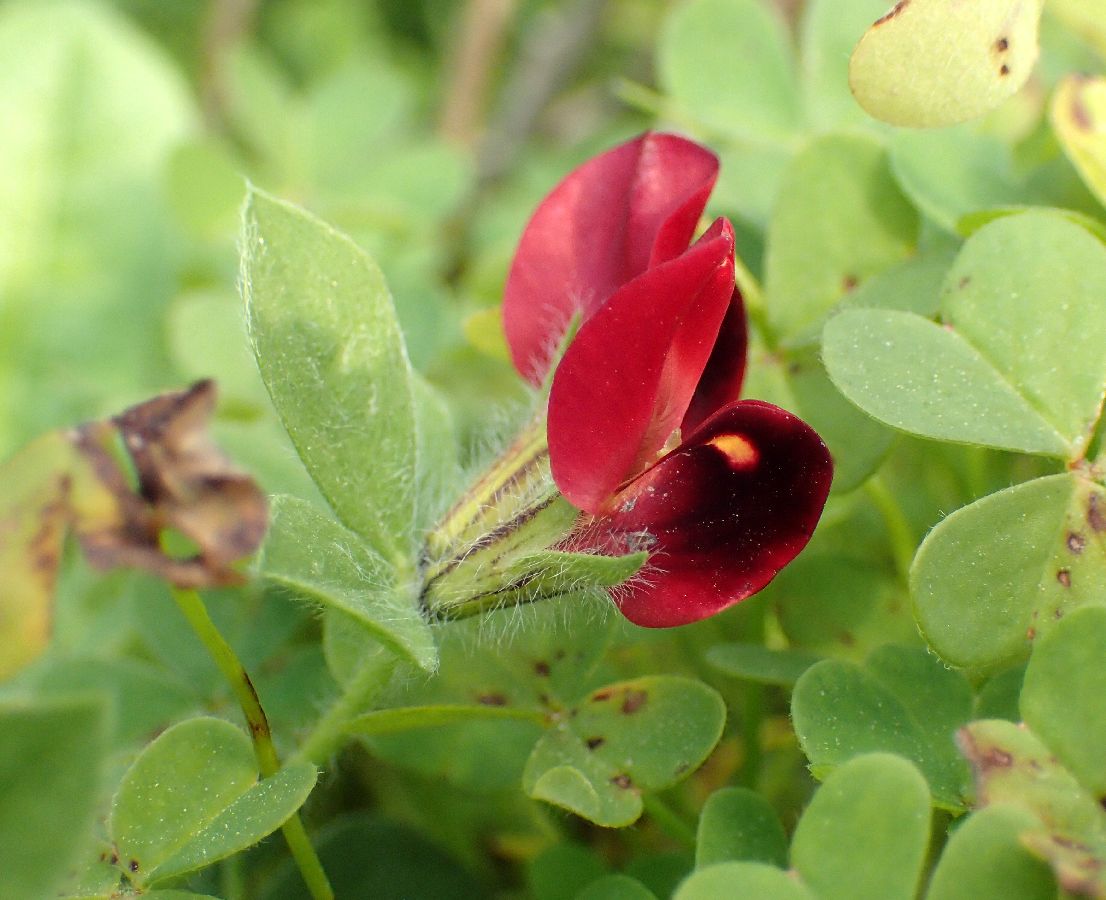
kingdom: Plantae
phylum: Tracheophyta
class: Magnoliopsida
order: Fabales
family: Fabaceae
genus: Lotus
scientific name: Lotus tetragonolobus
